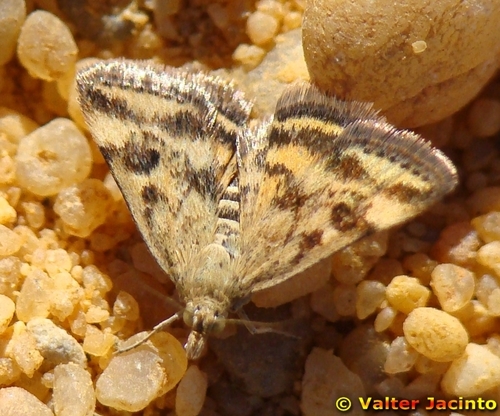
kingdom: Animalia
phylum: Arthropoda
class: Insecta
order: Lepidoptera
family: Crambidae
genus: Pyrausta
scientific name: Pyrausta despicata
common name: Straw-barred pearl
